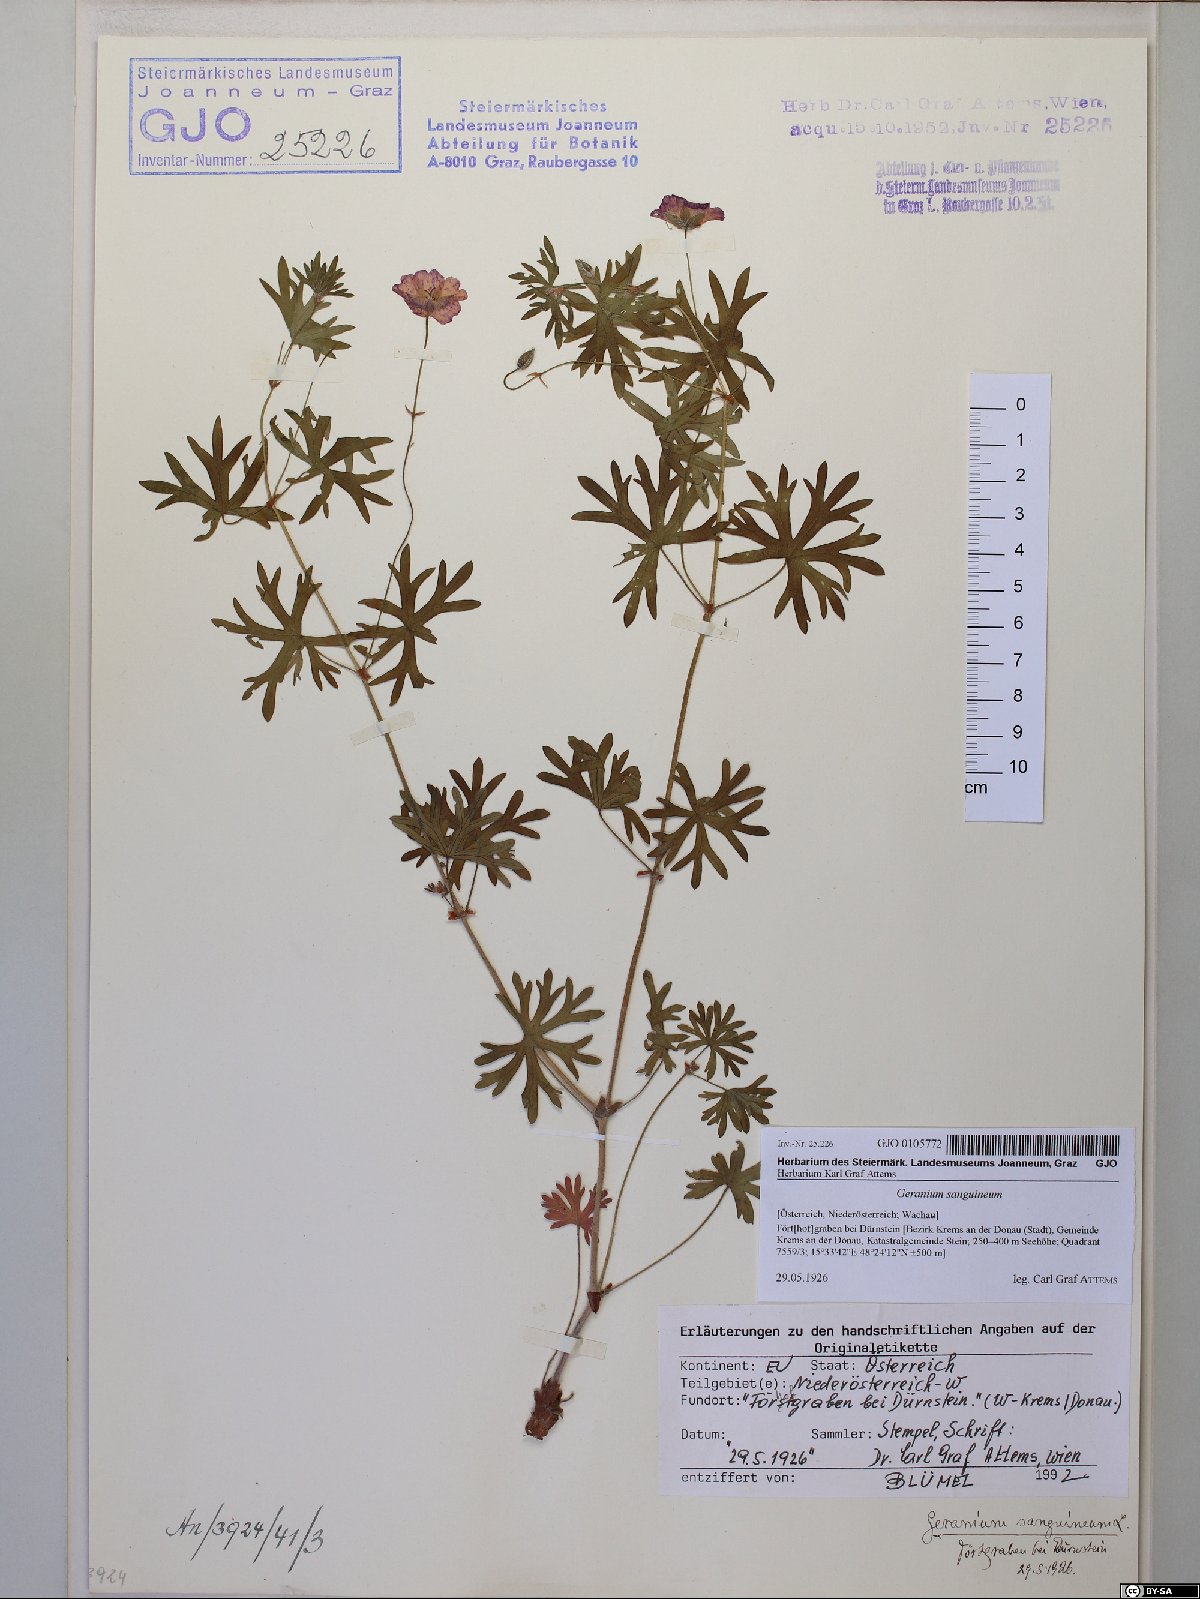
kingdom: Plantae
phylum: Tracheophyta
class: Magnoliopsida
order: Geraniales
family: Geraniaceae
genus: Geranium
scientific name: Geranium sanguineum
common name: Bloody crane's-bill
